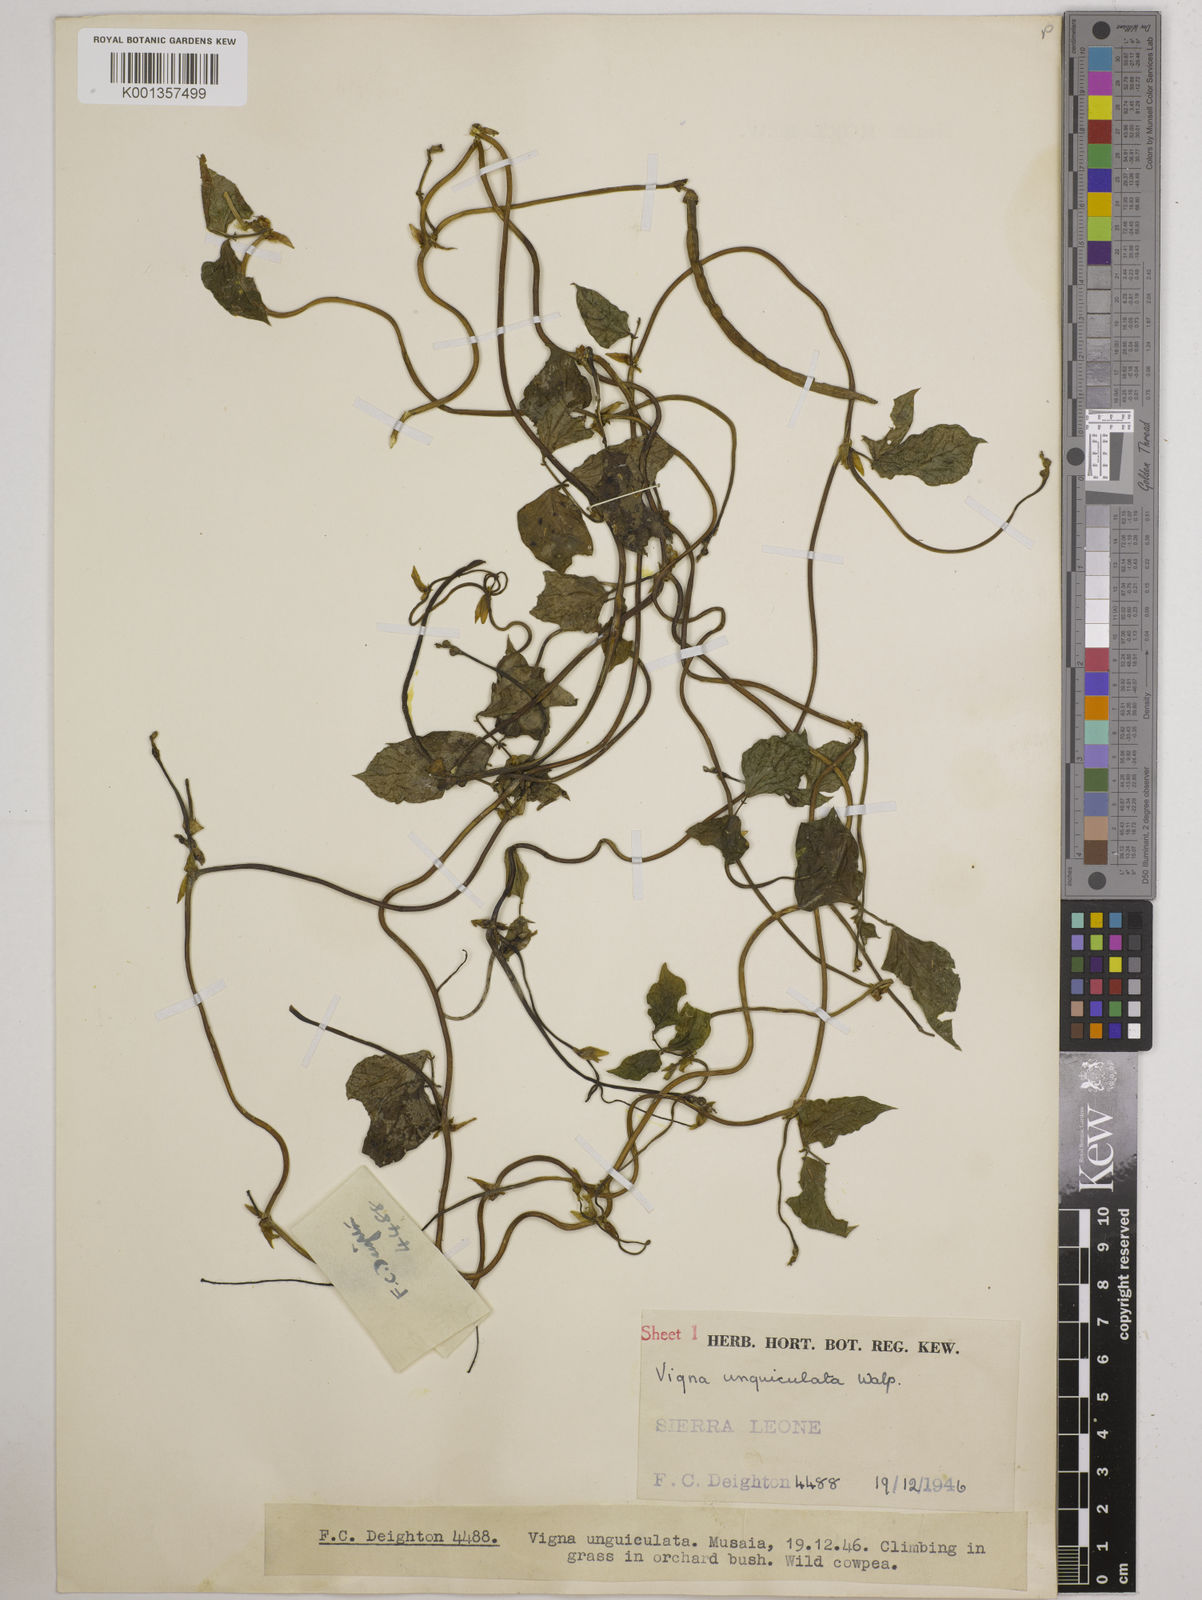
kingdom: Plantae
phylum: Tracheophyta
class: Magnoliopsida
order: Fabales
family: Fabaceae
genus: Vigna
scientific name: Vigna
